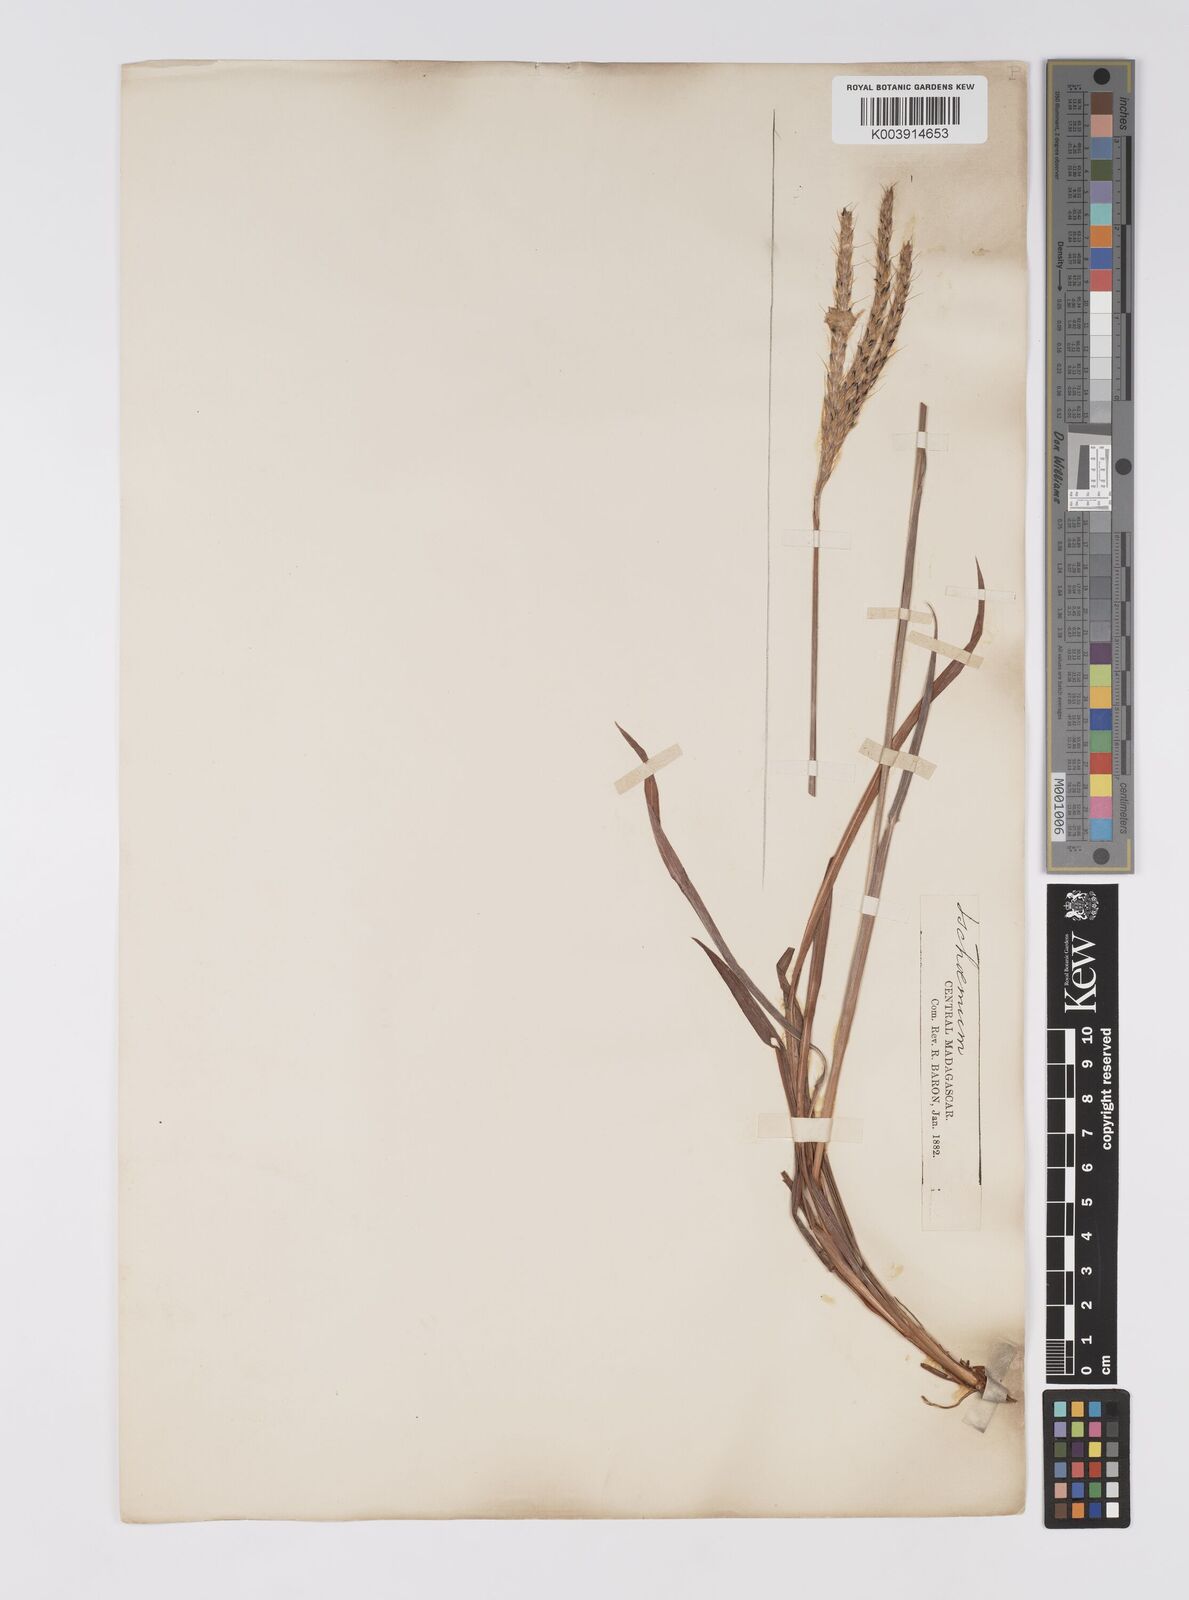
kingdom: Plantae
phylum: Tracheophyta
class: Liliopsida
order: Poales
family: Poaceae
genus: Eulalia
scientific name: Eulalia villosa
